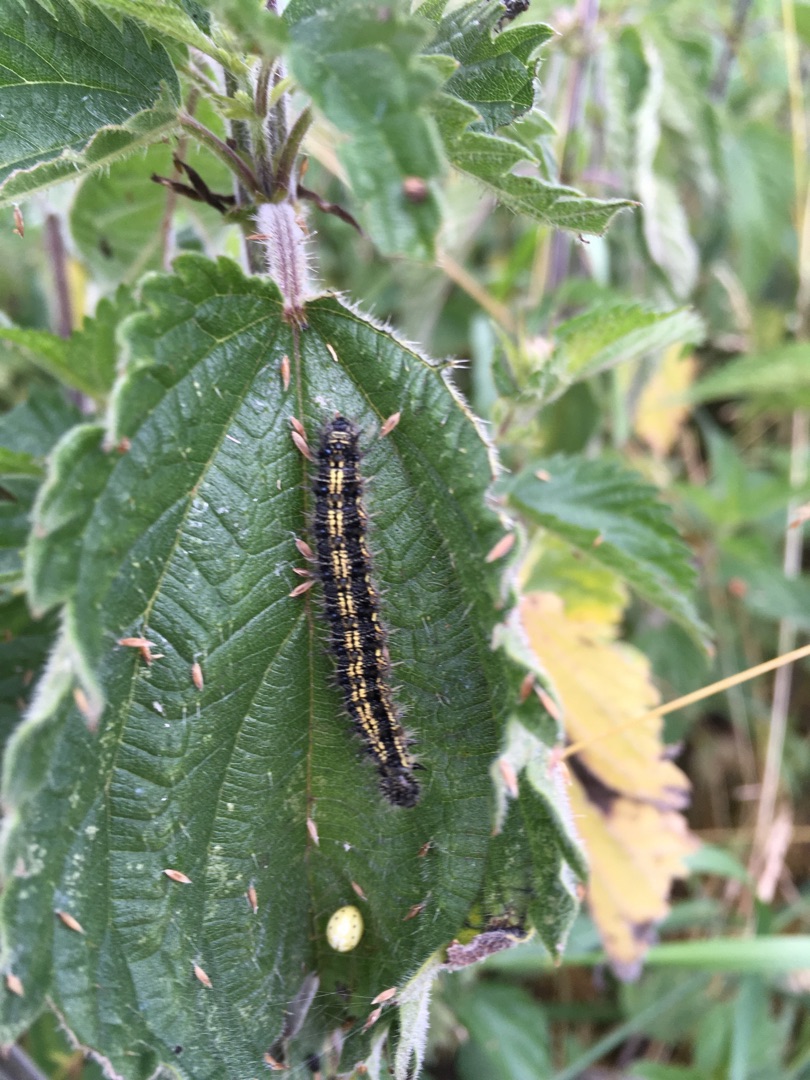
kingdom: Animalia
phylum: Arthropoda
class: Insecta
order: Lepidoptera
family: Nymphalidae
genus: Aglais
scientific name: Aglais urticae
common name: Nældens takvinge
